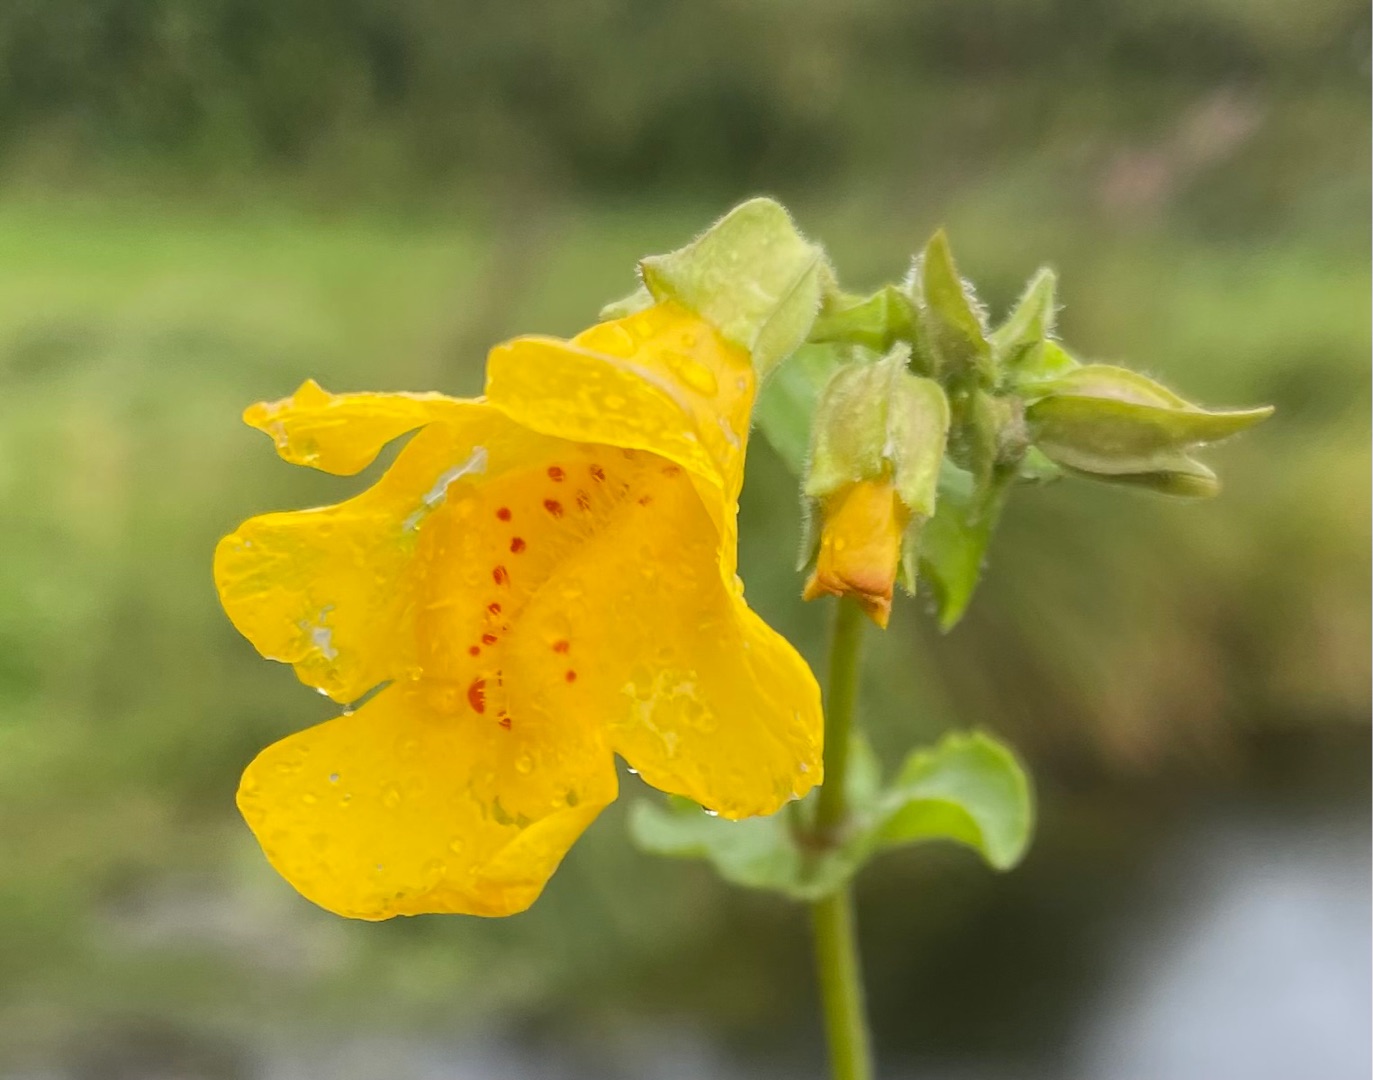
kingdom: Plantae
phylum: Tracheophyta
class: Magnoliopsida
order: Lamiales
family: Phrymaceae
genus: Erythranthe
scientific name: Erythranthe guttata
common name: Abeblomst
